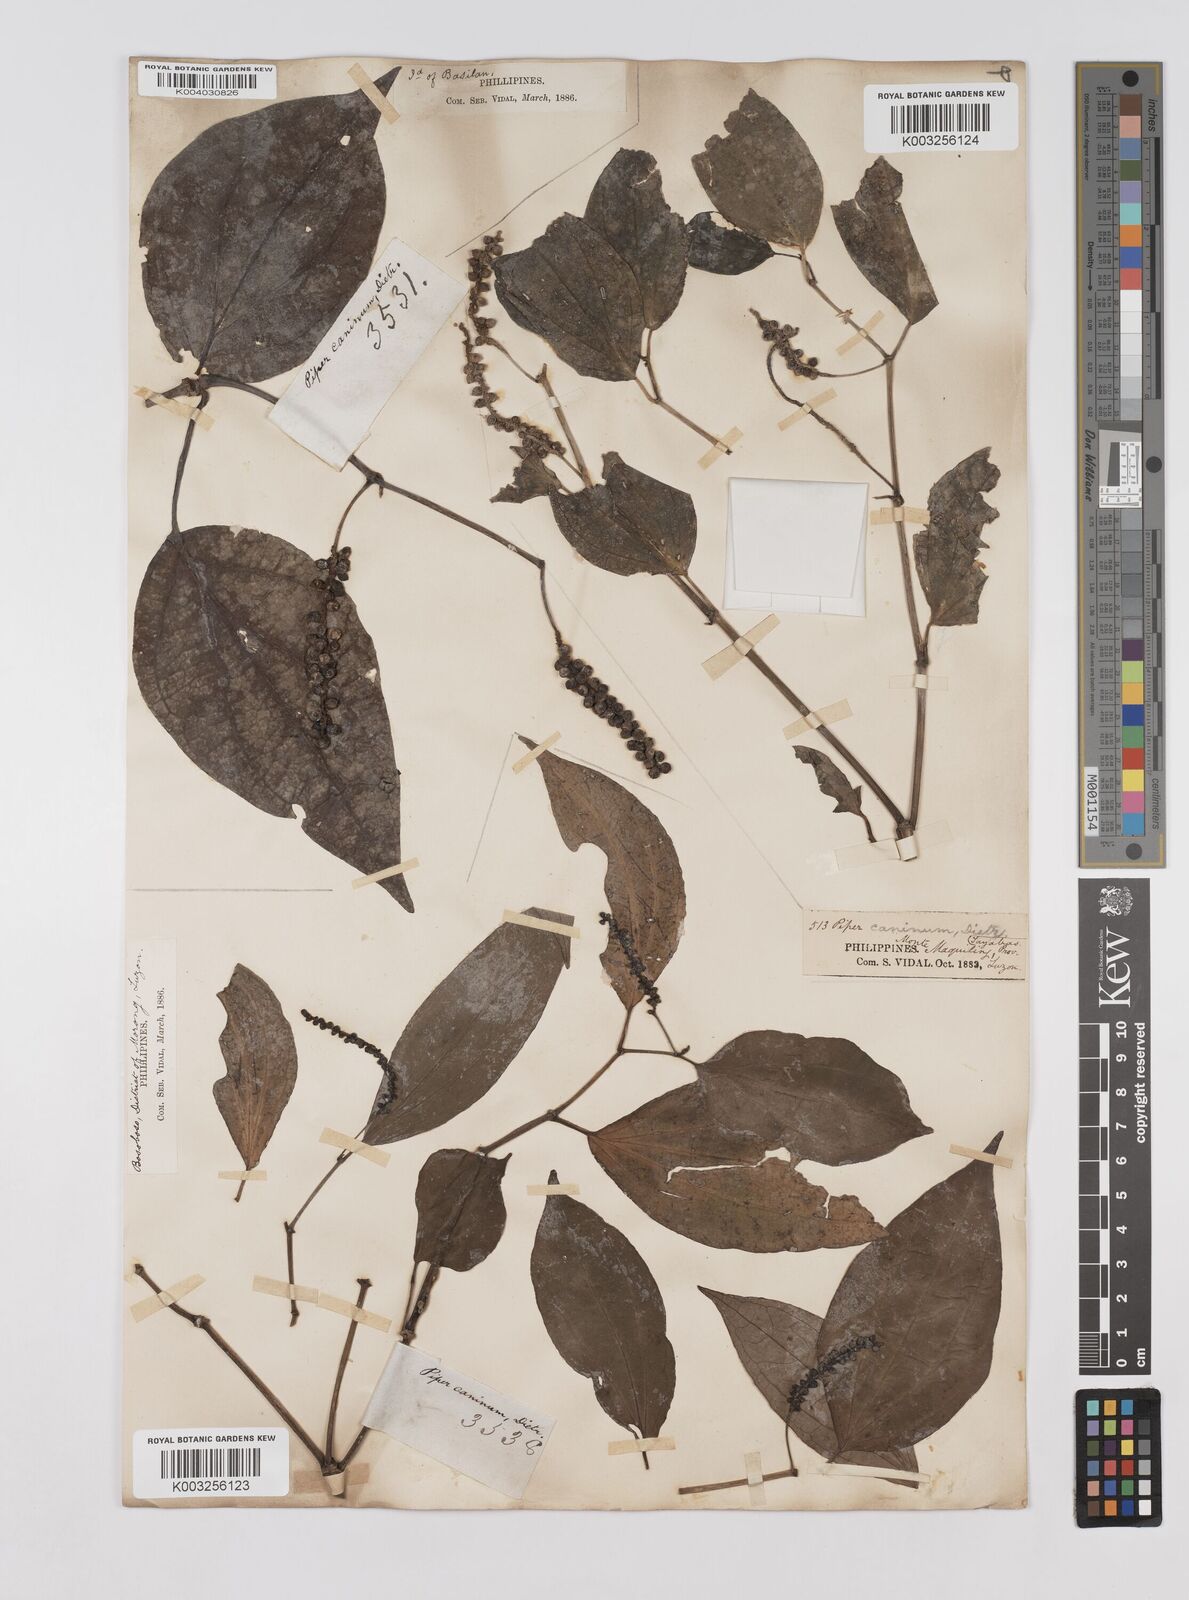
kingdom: Plantae
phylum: Tracheophyta
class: Magnoliopsida
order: Piperales
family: Piperaceae
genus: Piper
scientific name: Piper lanatum
